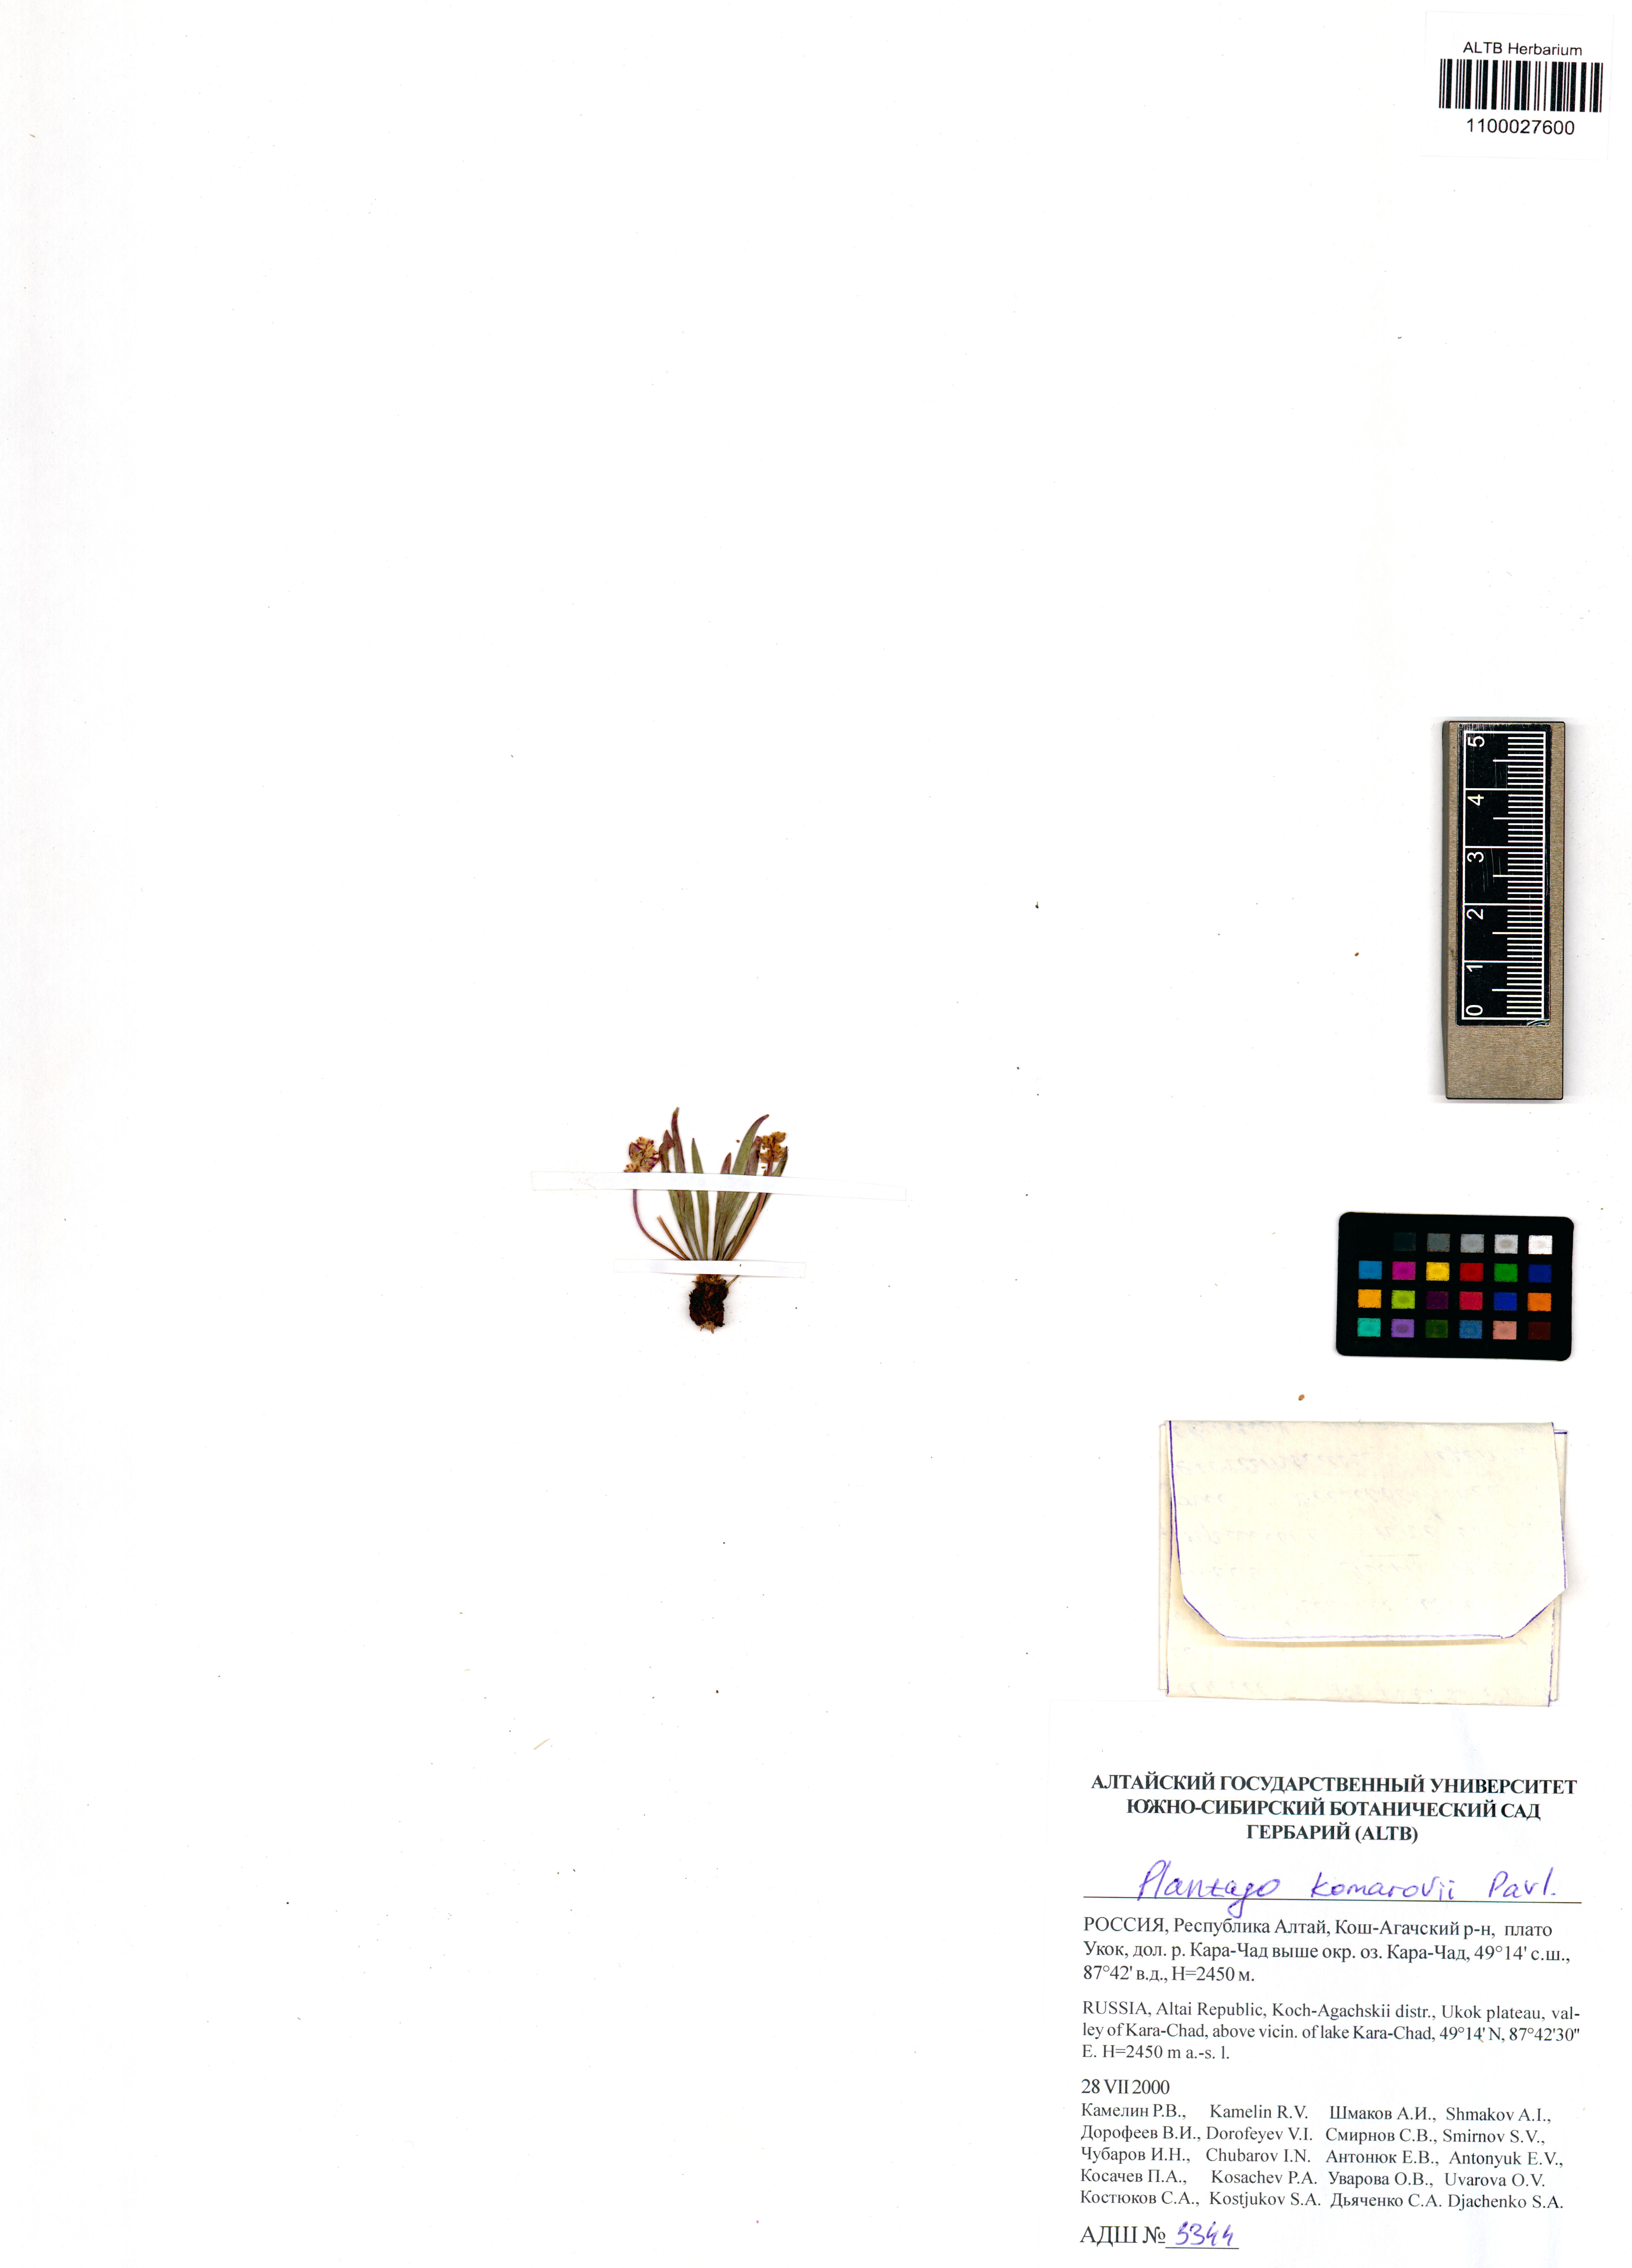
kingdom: Plantae
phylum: Tracheophyta
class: Magnoliopsida
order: Lamiales
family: Plantaginaceae
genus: Plantago
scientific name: Plantago komarovii
